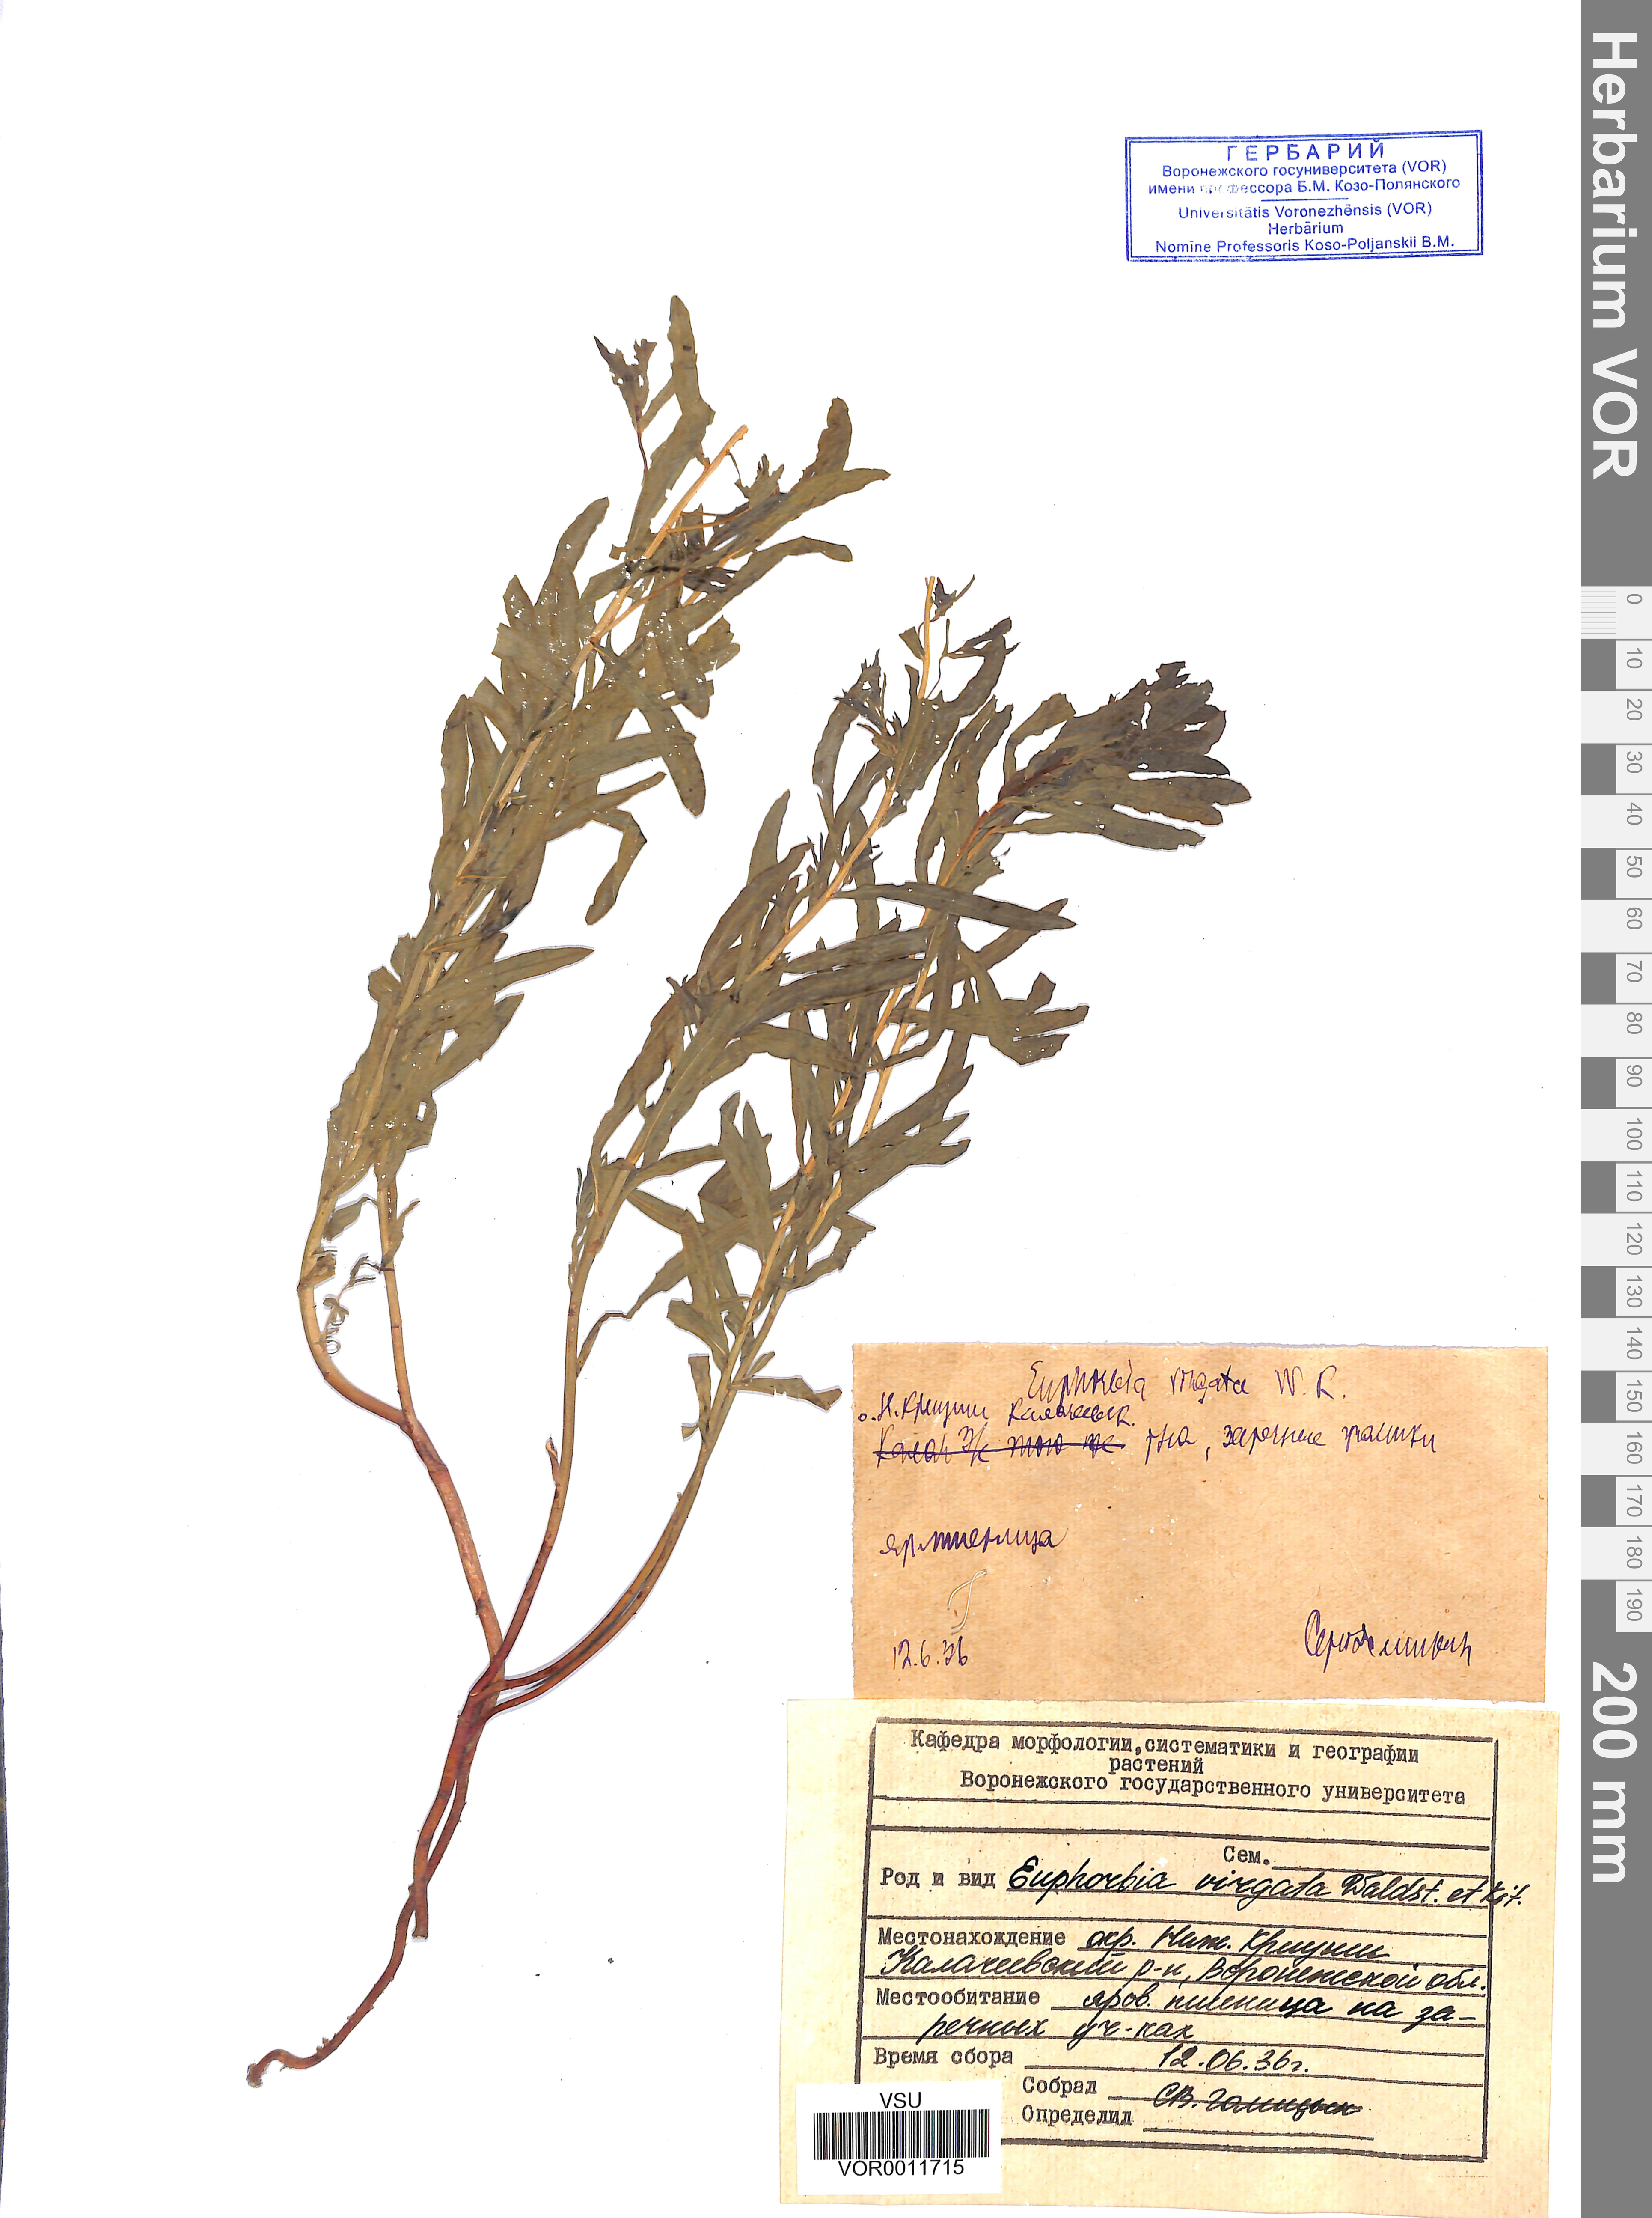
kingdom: Plantae
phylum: Tracheophyta
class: Magnoliopsida
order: Malpighiales
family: Euphorbiaceae
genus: Euphorbia
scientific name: Euphorbia virgata
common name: Leafy spurge
